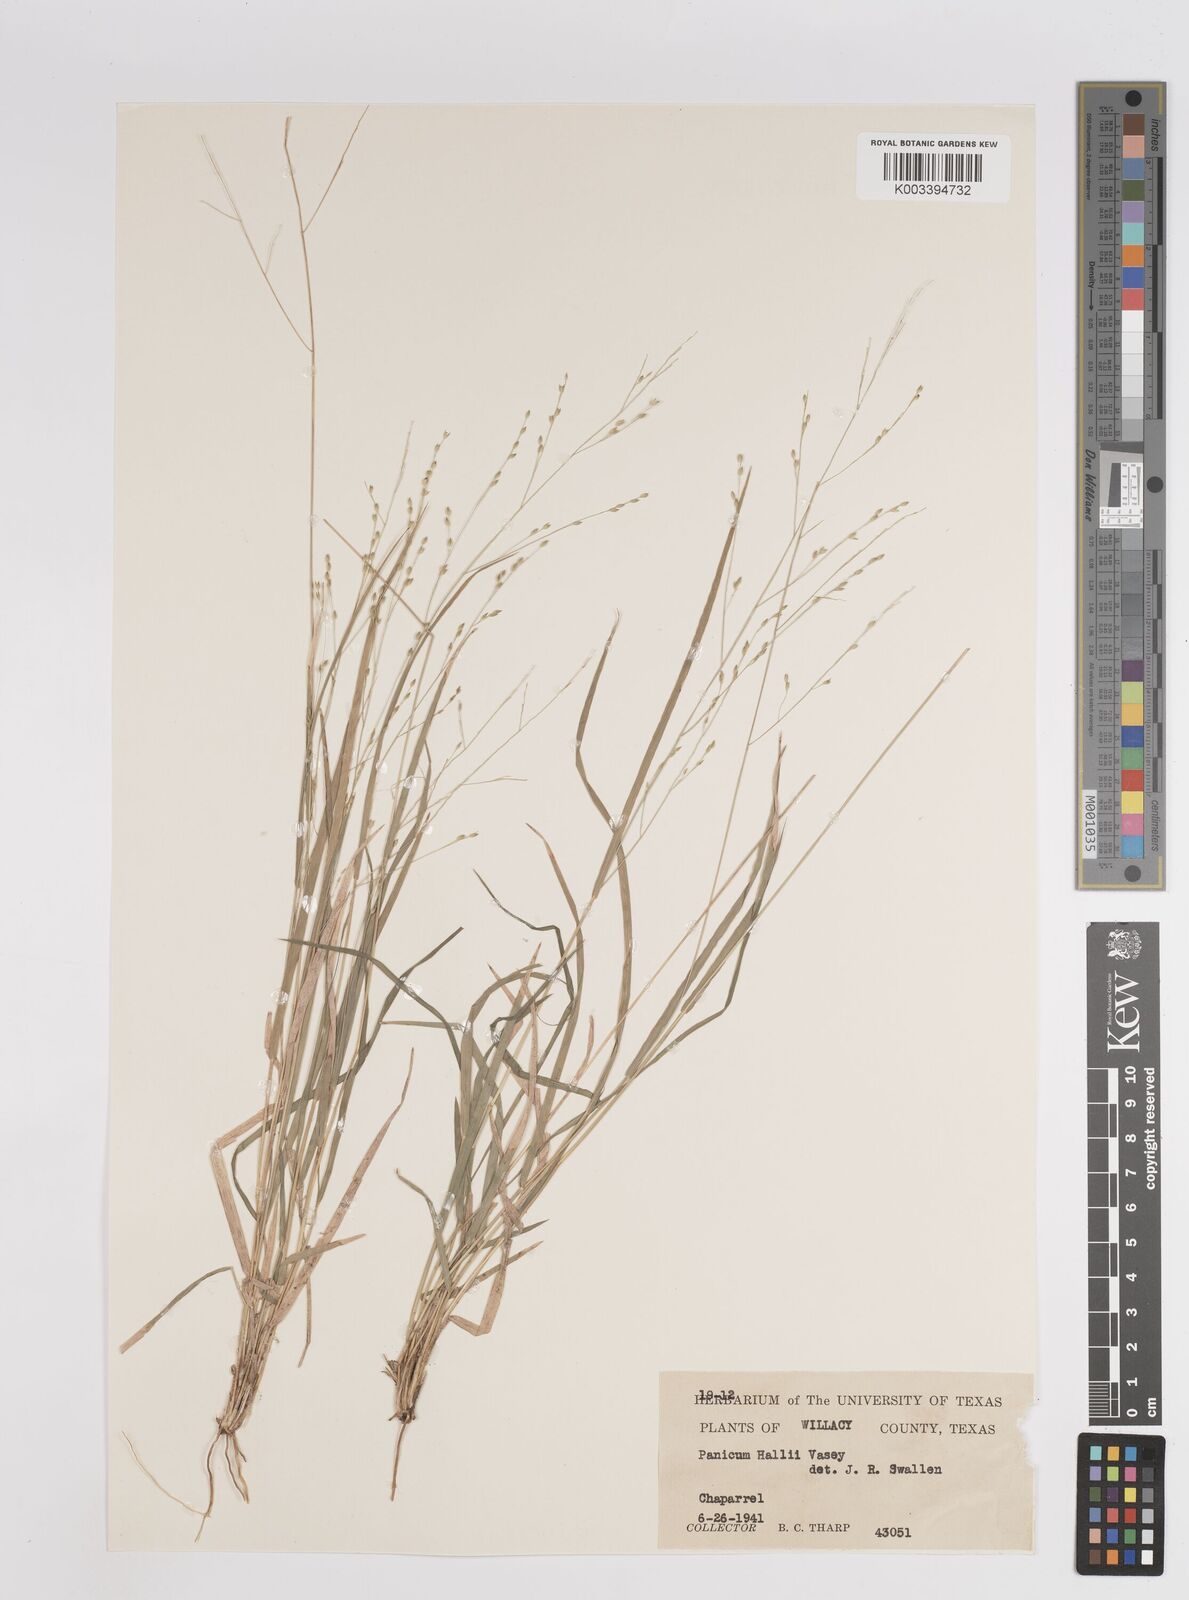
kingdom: Plantae
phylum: Tracheophyta
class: Liliopsida
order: Poales
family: Poaceae
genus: Panicum
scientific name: Panicum hallii
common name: Hall's witchgrass
